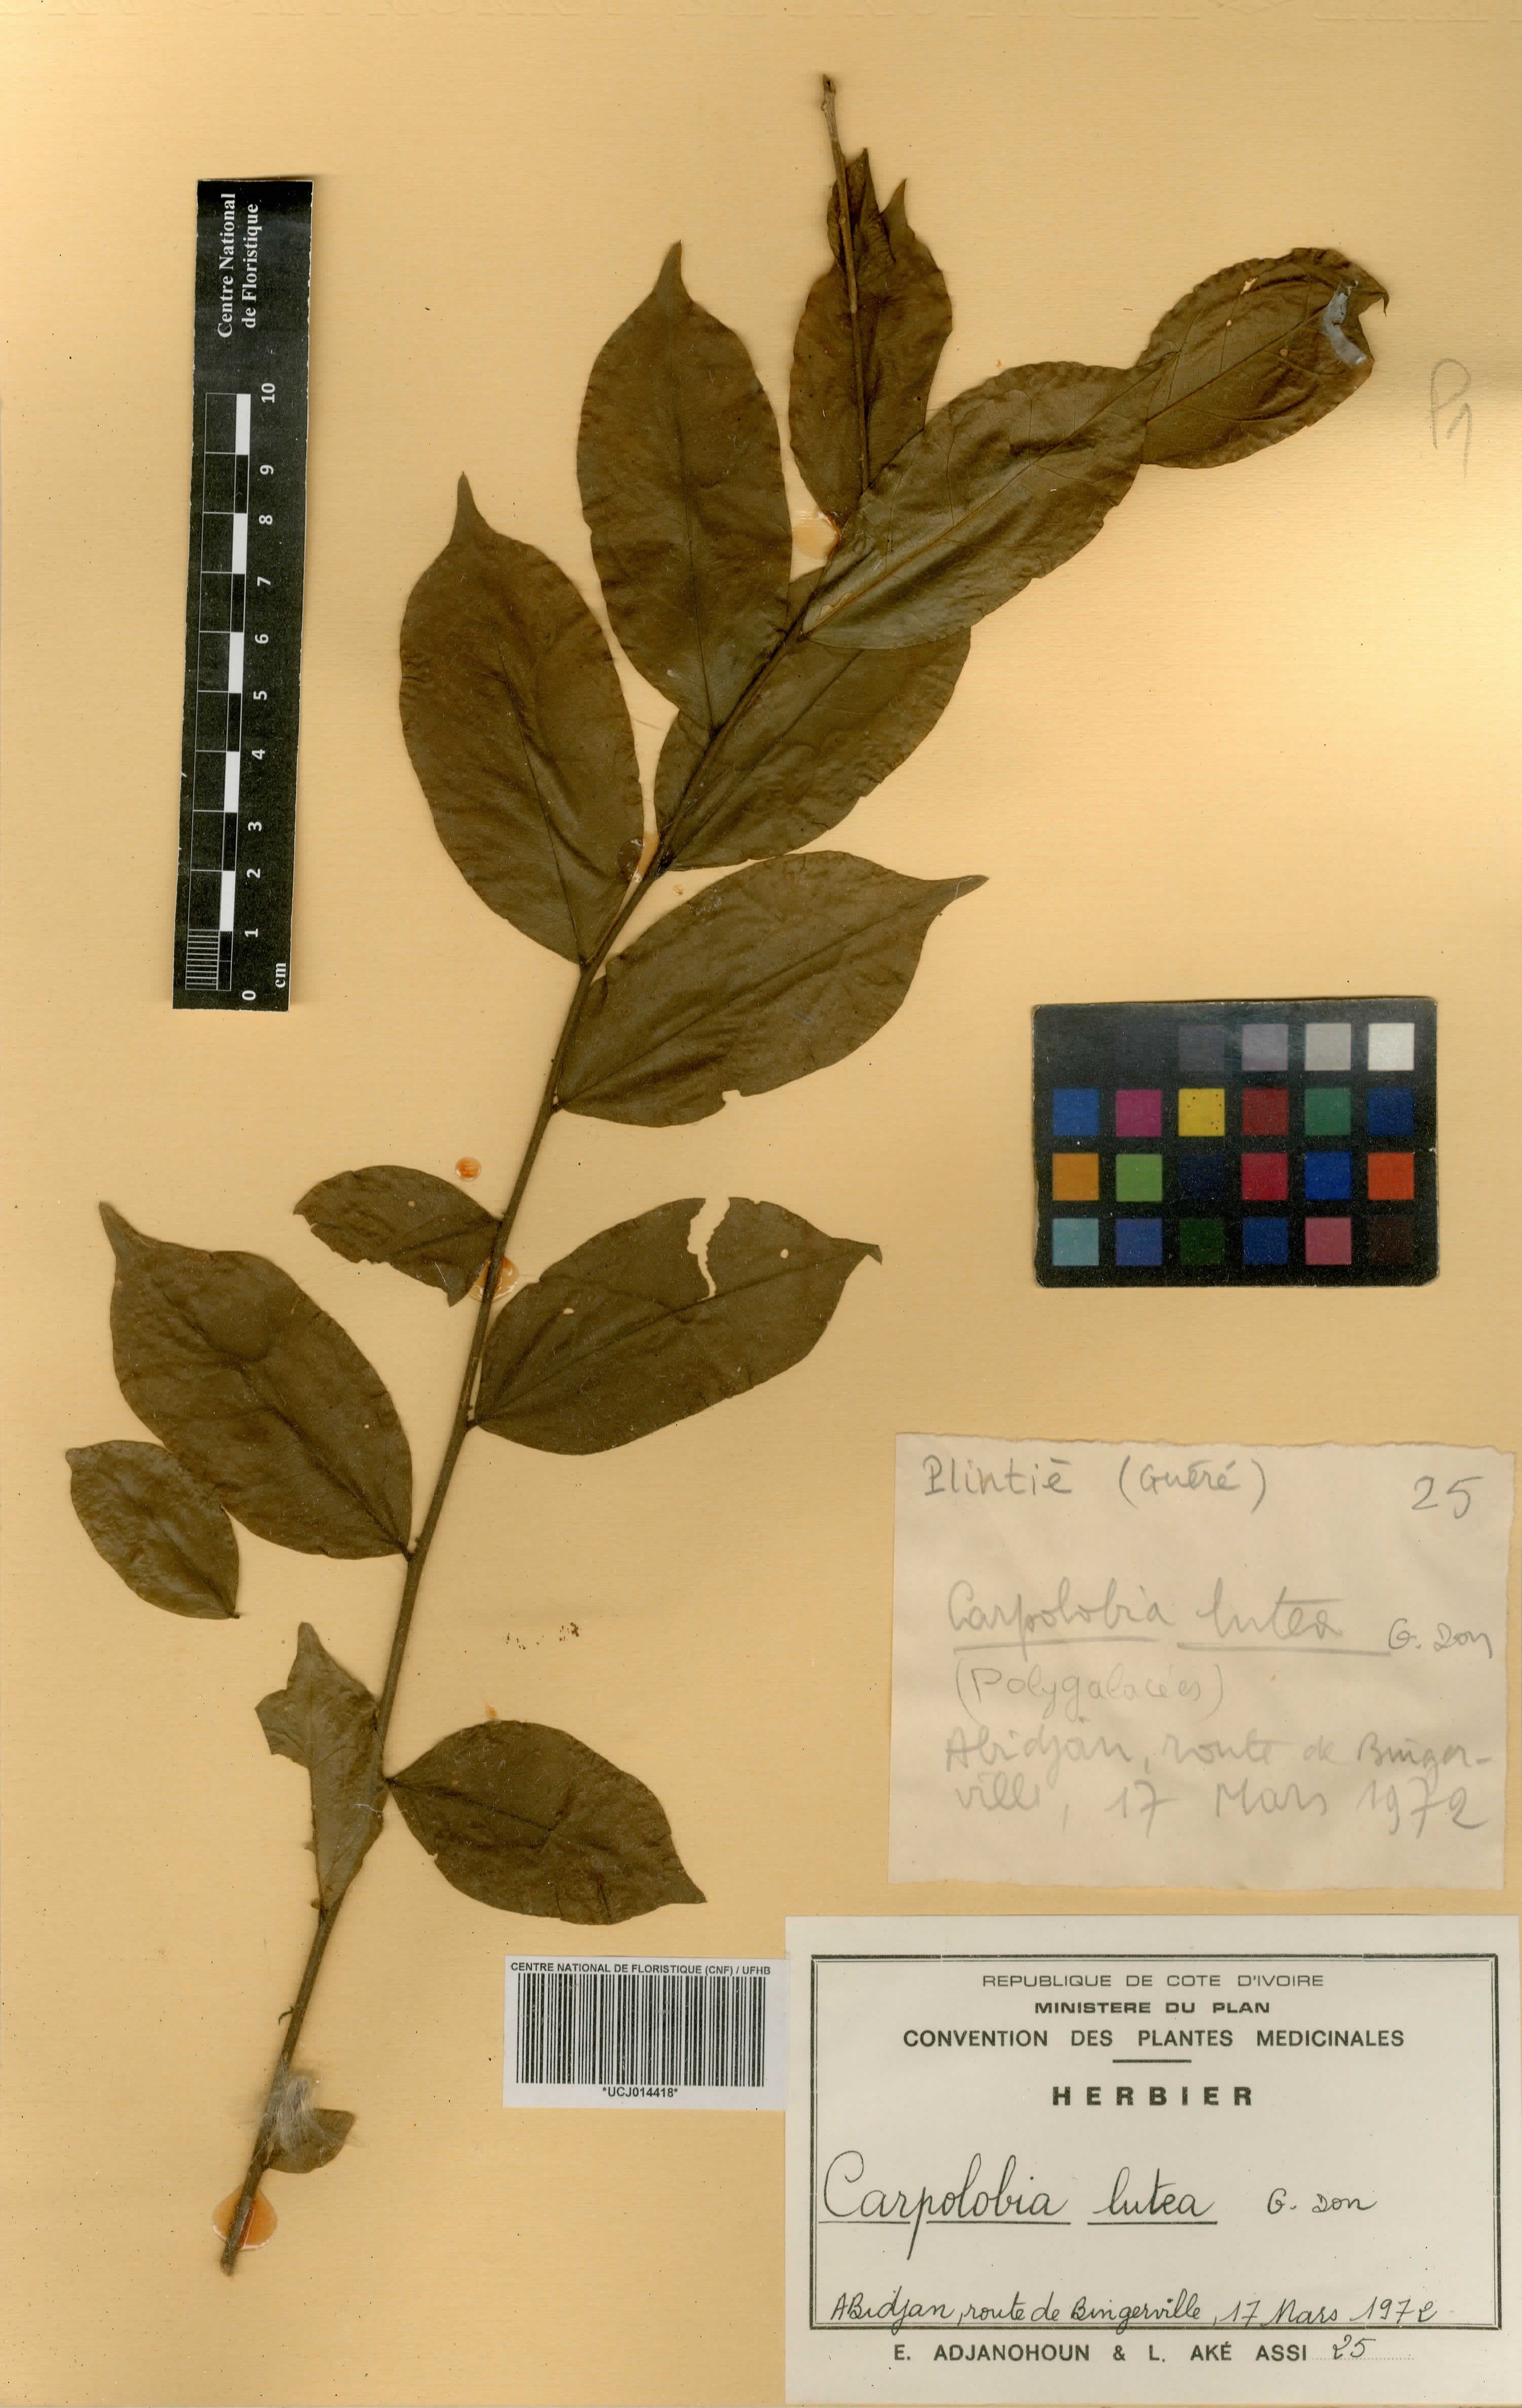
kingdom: Plantae
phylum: Tracheophyta
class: Magnoliopsida
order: Fabales
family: Polygalaceae
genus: Carpolobia
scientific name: Carpolobia lutea
